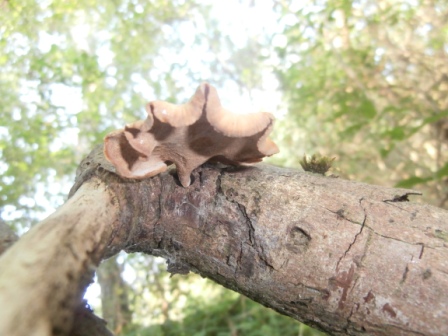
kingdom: Fungi
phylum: Basidiomycota
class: Agaricomycetes
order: Polyporales
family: Polyporaceae
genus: Cerioporus
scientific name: Cerioporus varius
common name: foranderlig stilkporesvamp
